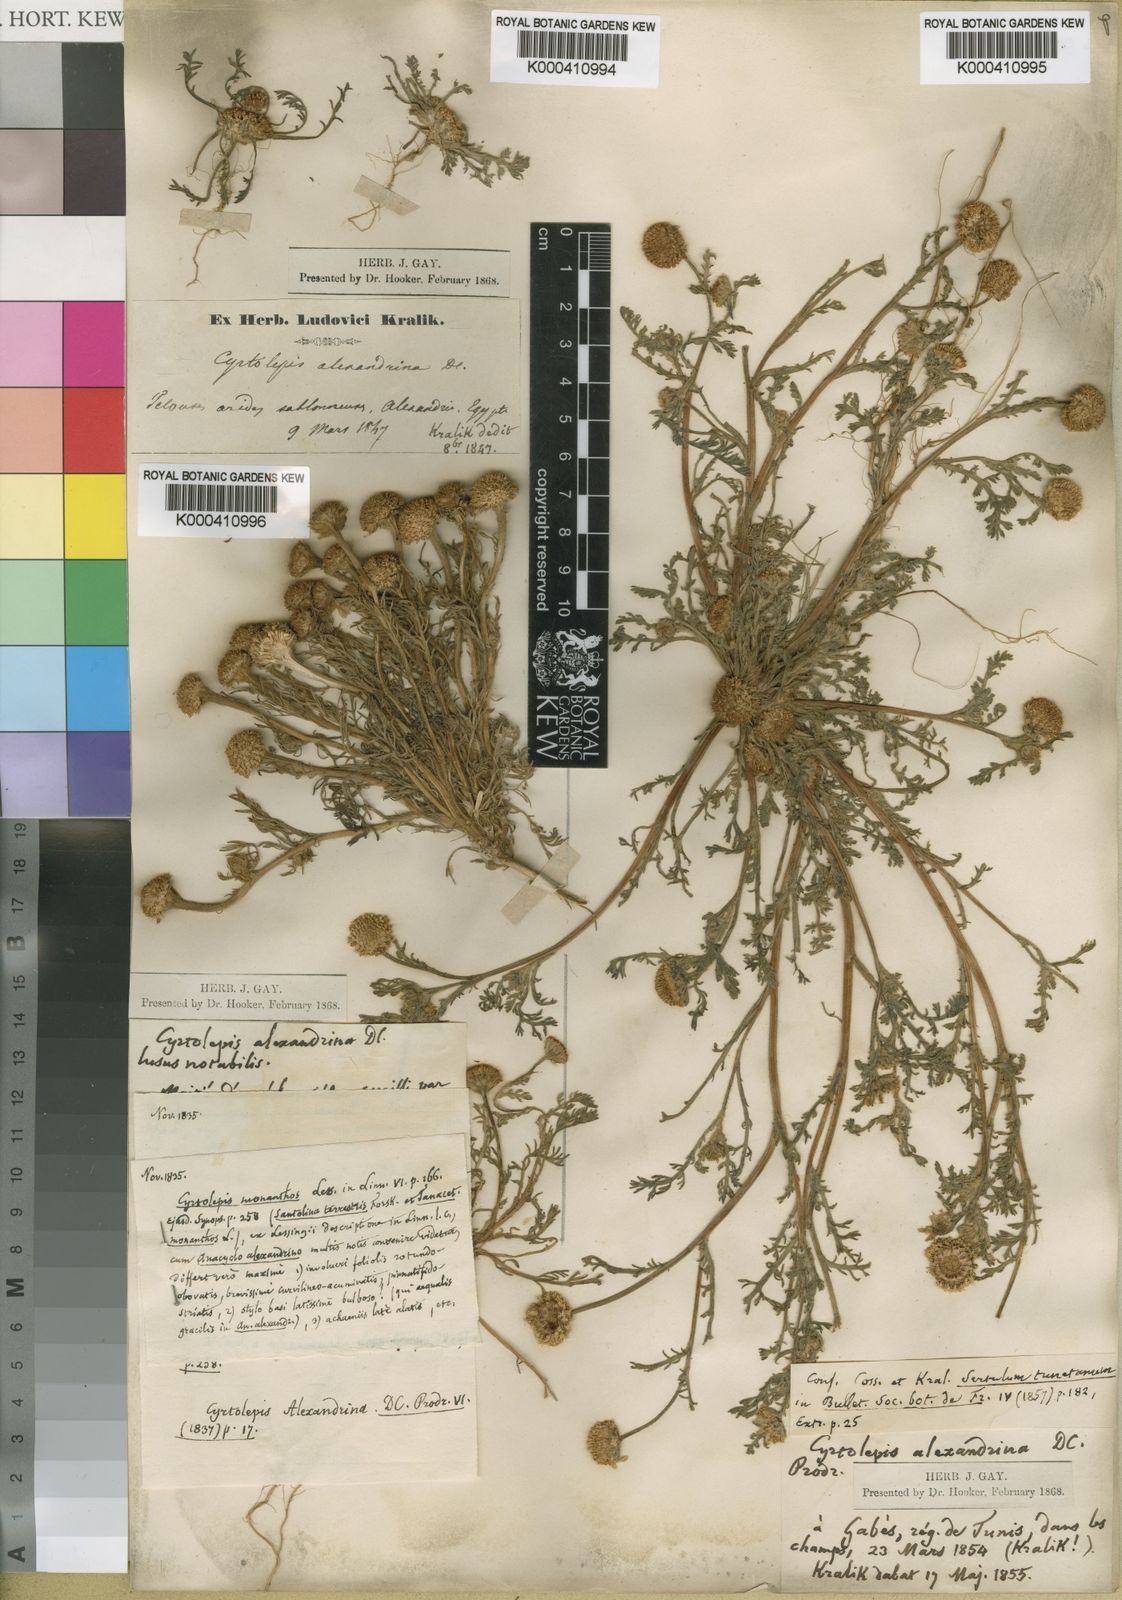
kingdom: Plantae
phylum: Tracheophyta
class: Magnoliopsida
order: Asterales
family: Asteraceae
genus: Anacyclus
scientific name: Anacyclus monanthos
